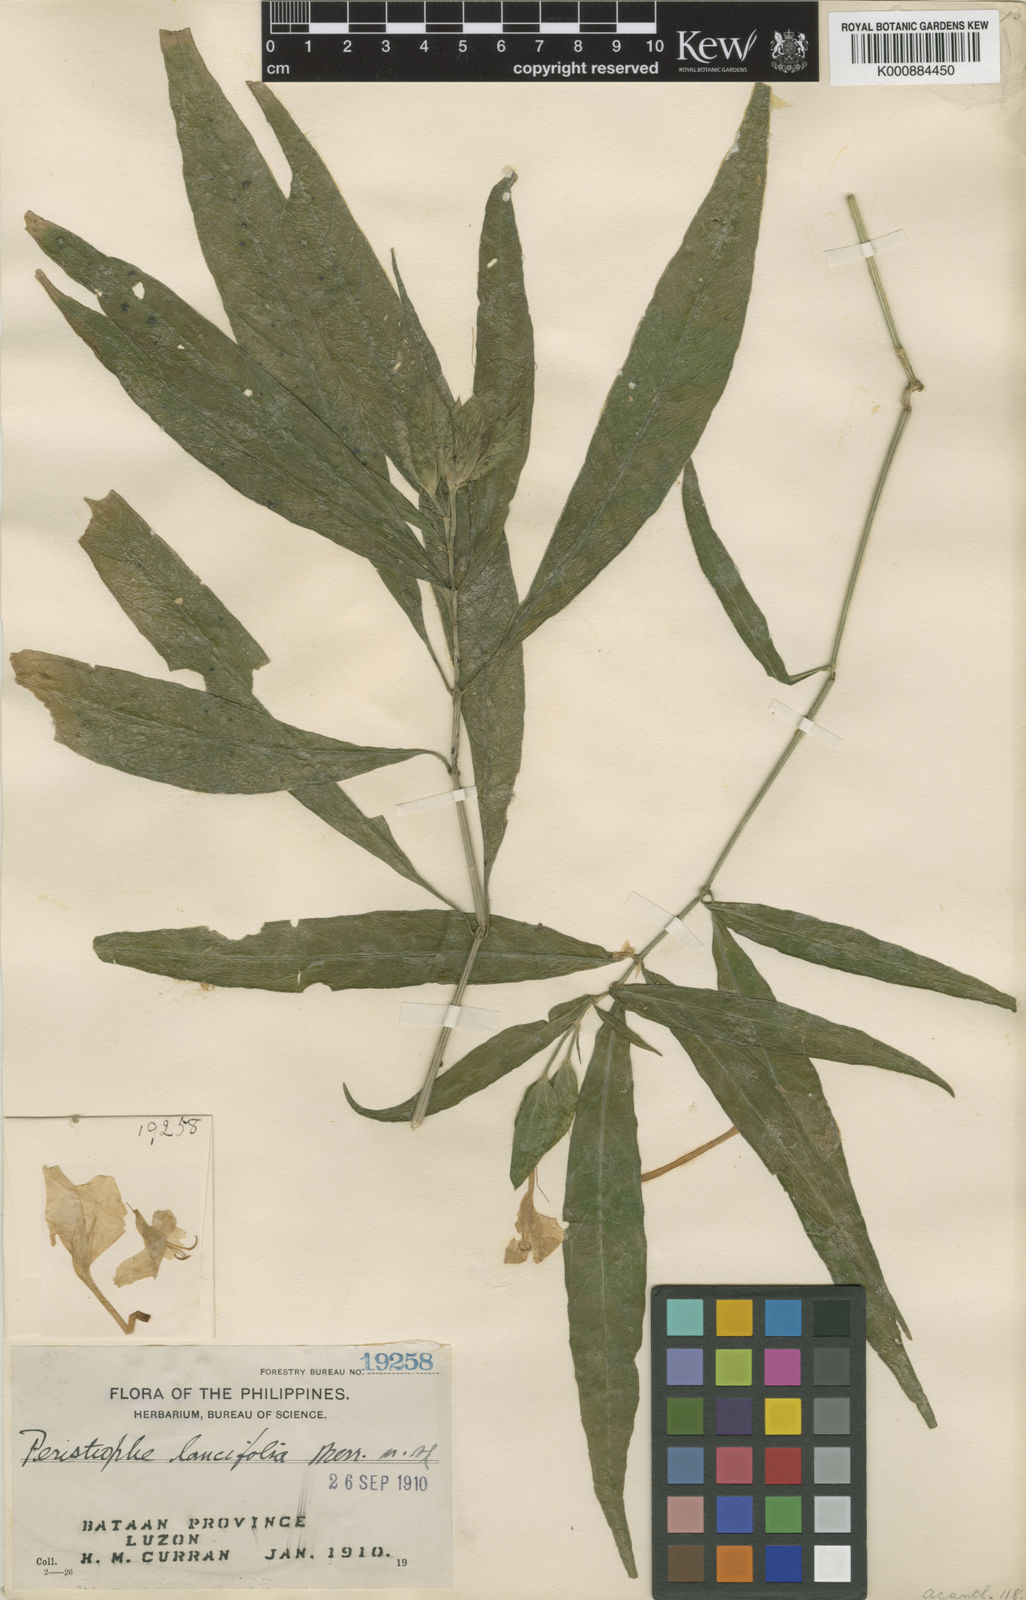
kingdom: Plantae
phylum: Tracheophyta
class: Magnoliopsida
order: Lamiales
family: Acanthaceae
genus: Dicliptera
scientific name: Dicliptera
